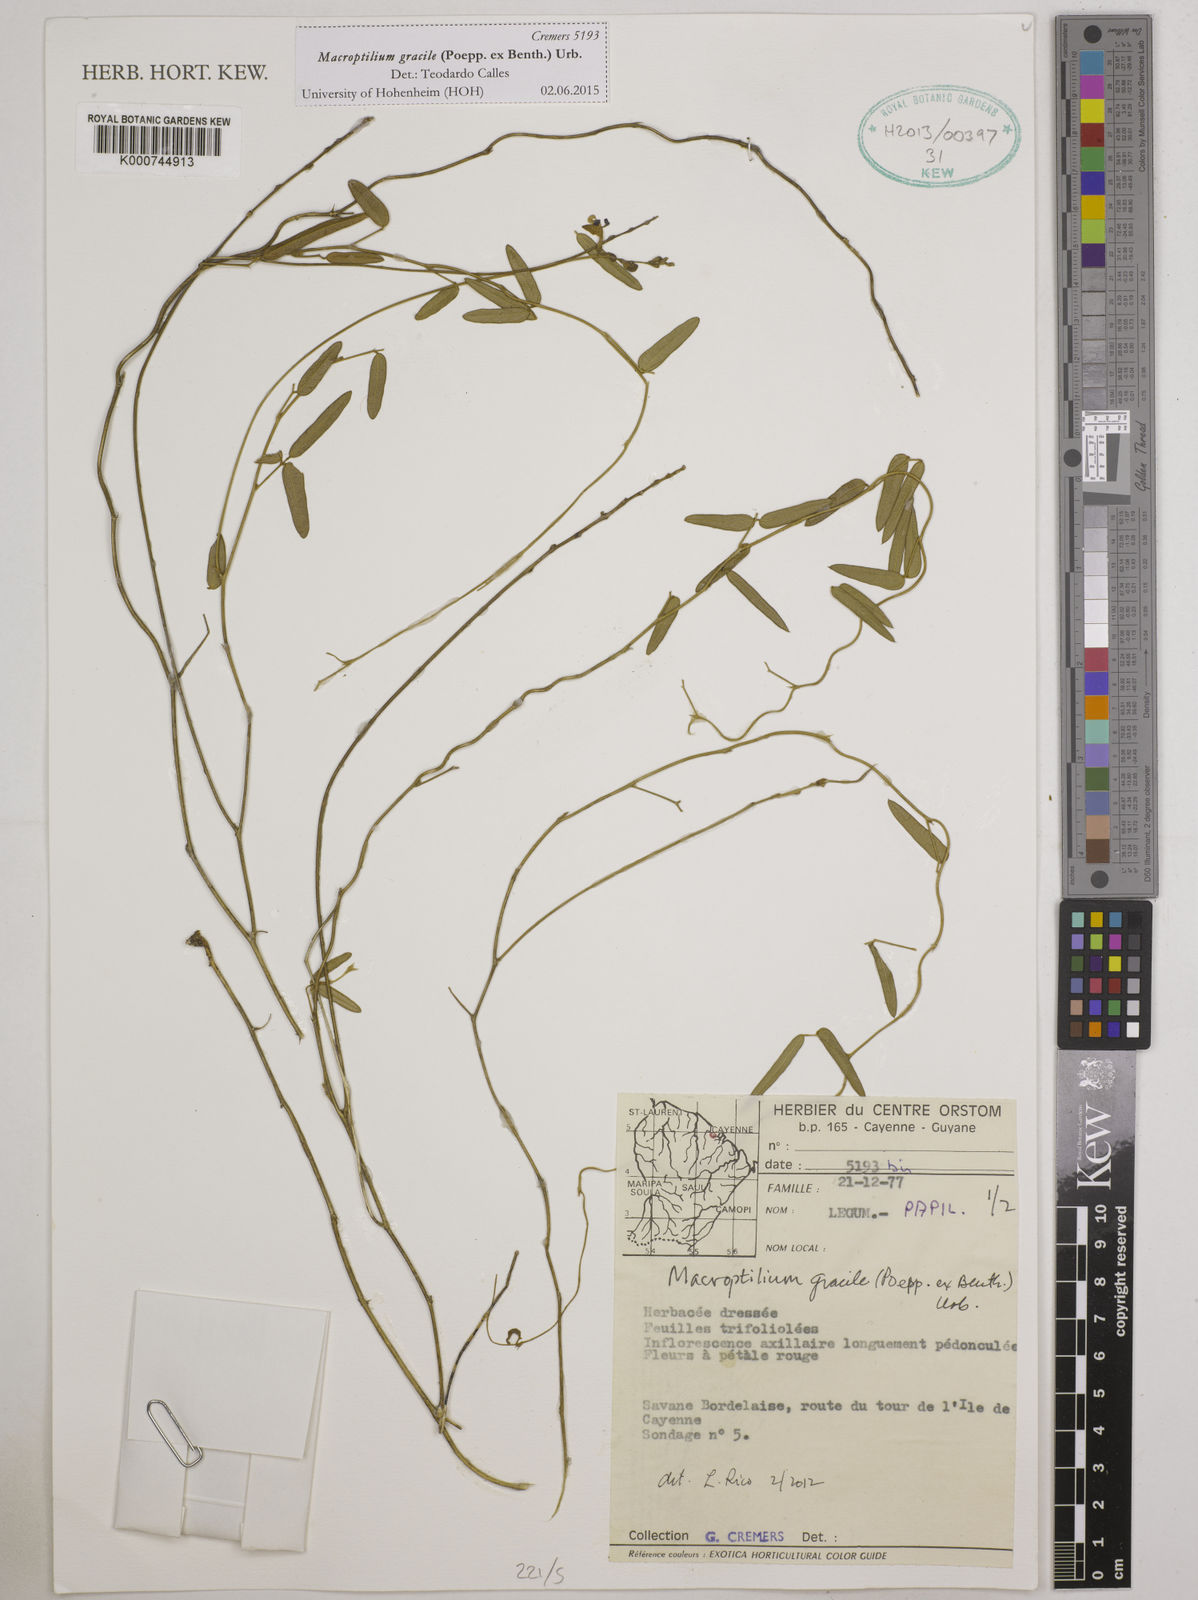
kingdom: Plantae
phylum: Tracheophyta
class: Magnoliopsida
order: Fabales
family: Fabaceae
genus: Macroptilium
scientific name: Macroptilium gracile
